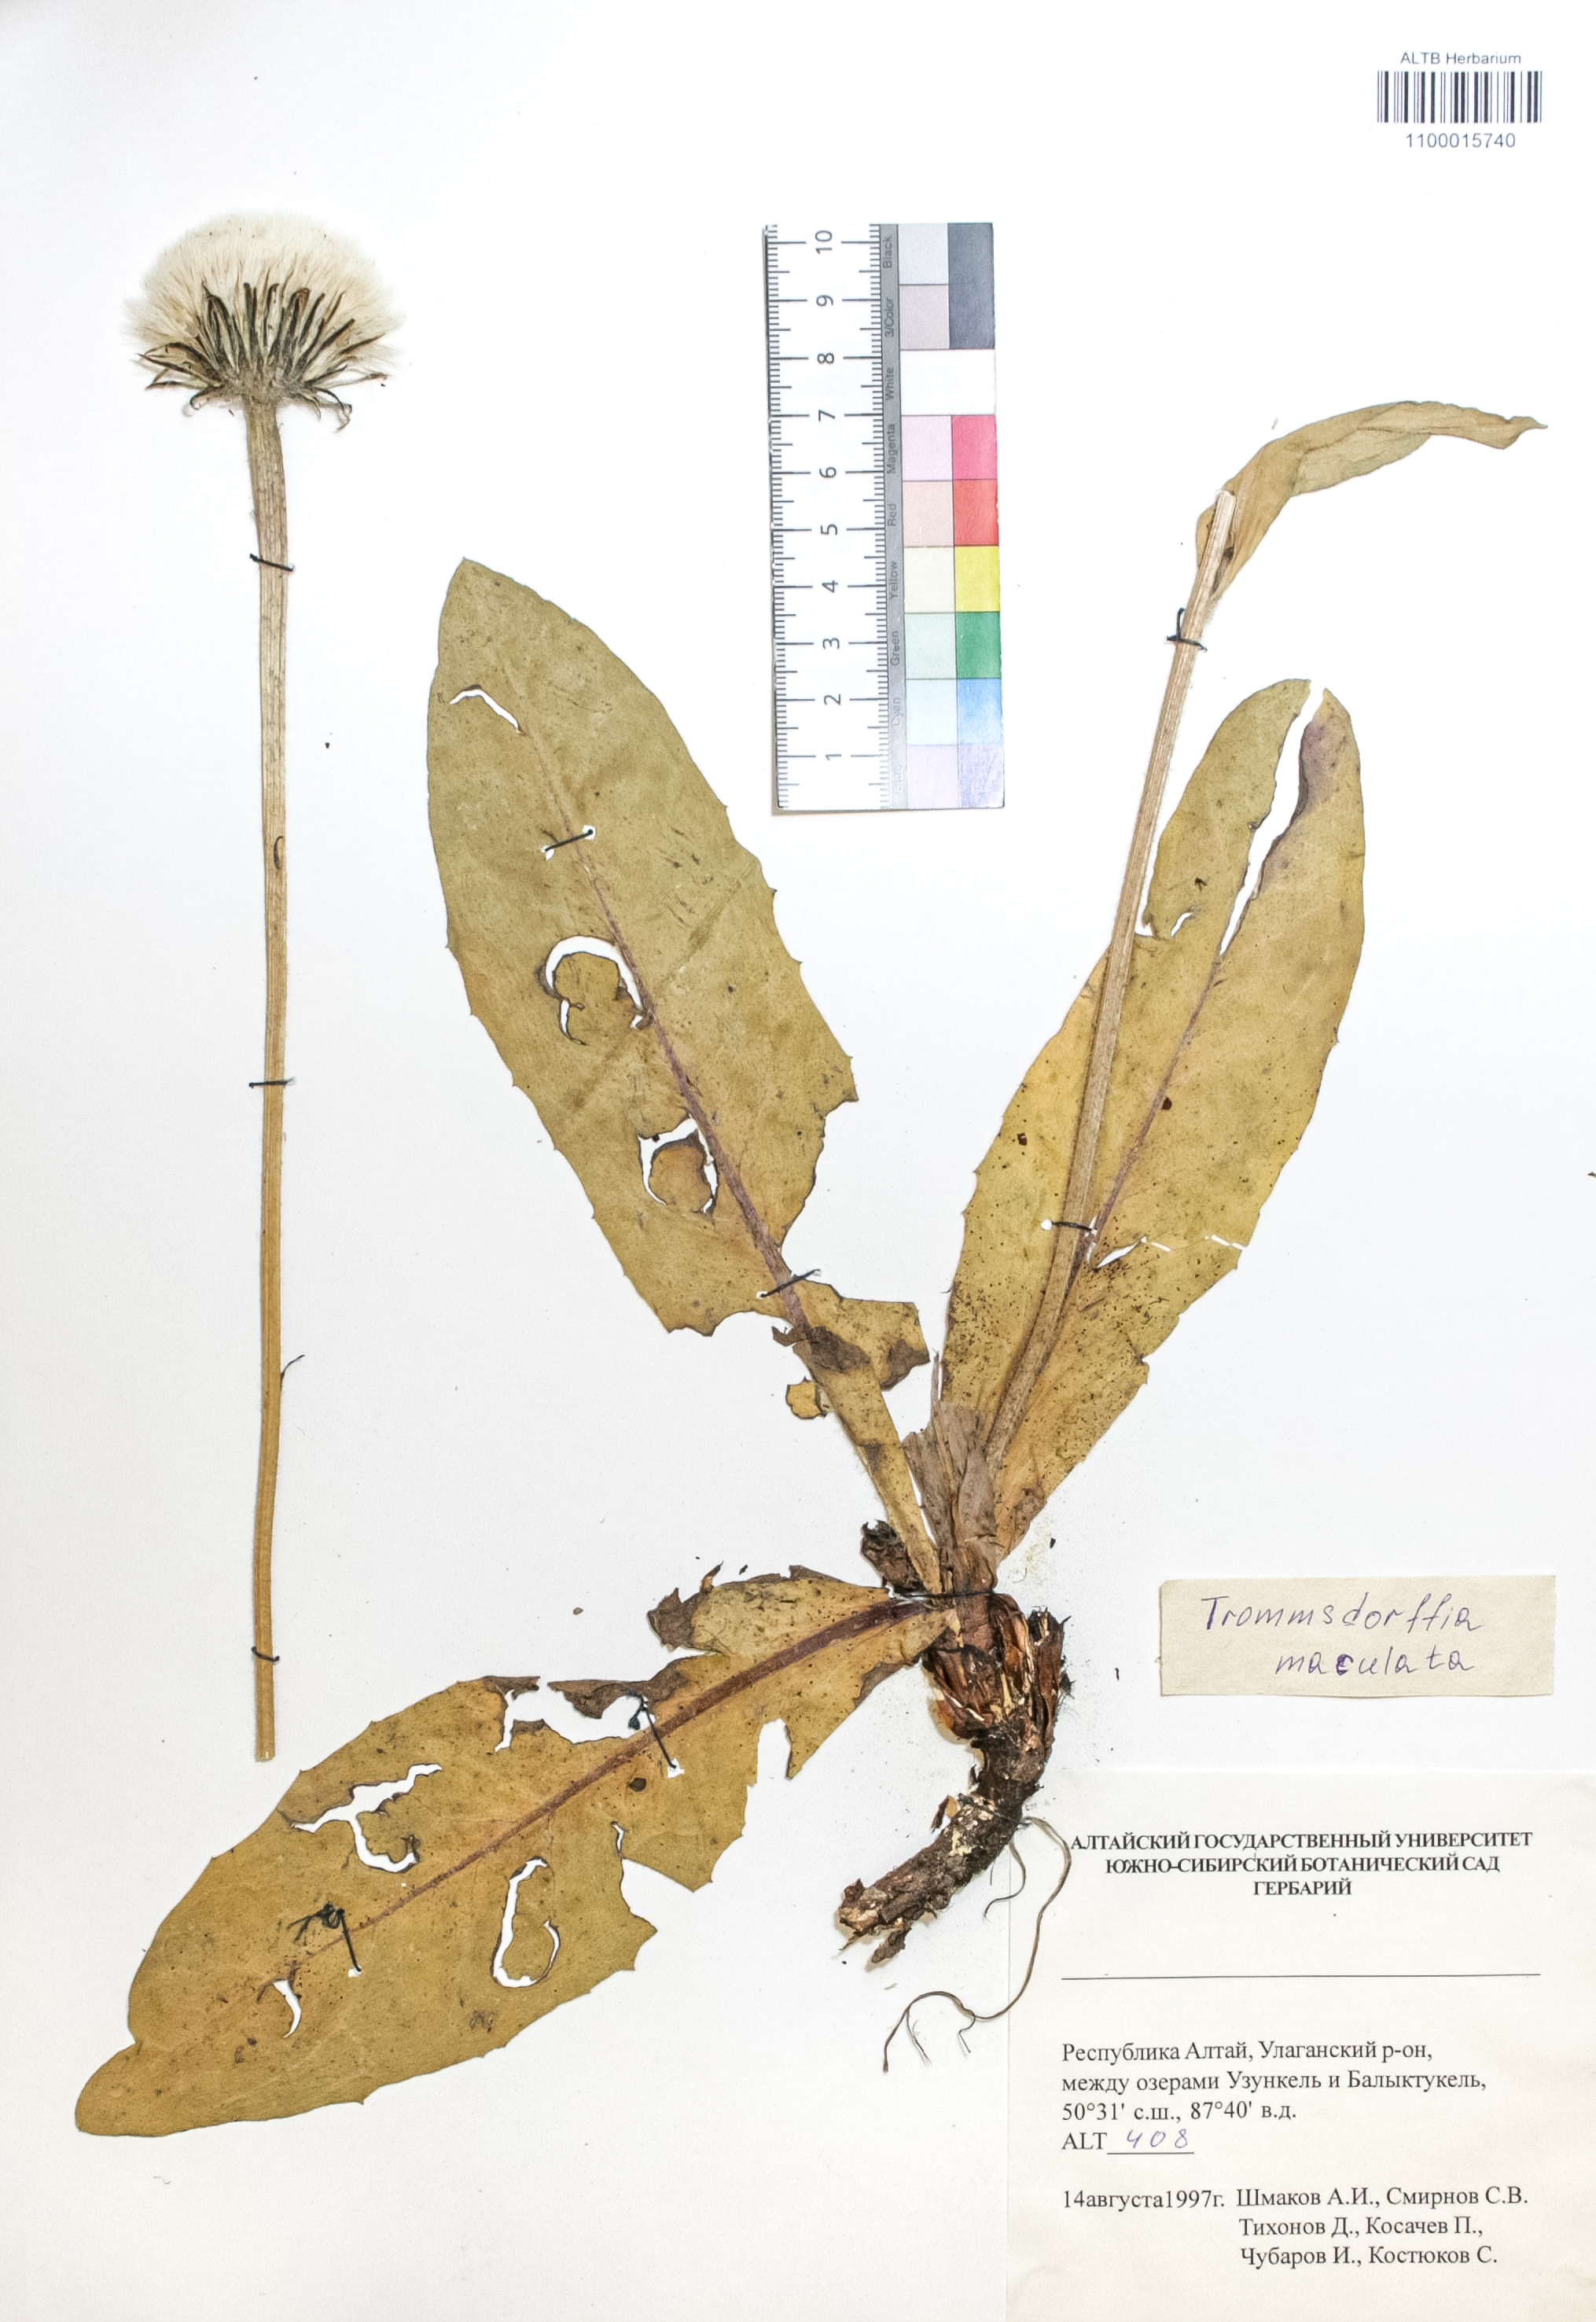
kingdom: Plantae
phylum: Tracheophyta
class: Magnoliopsida
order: Asterales
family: Asteraceae
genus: Trommsdorffia
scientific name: Trommsdorffia maculata
